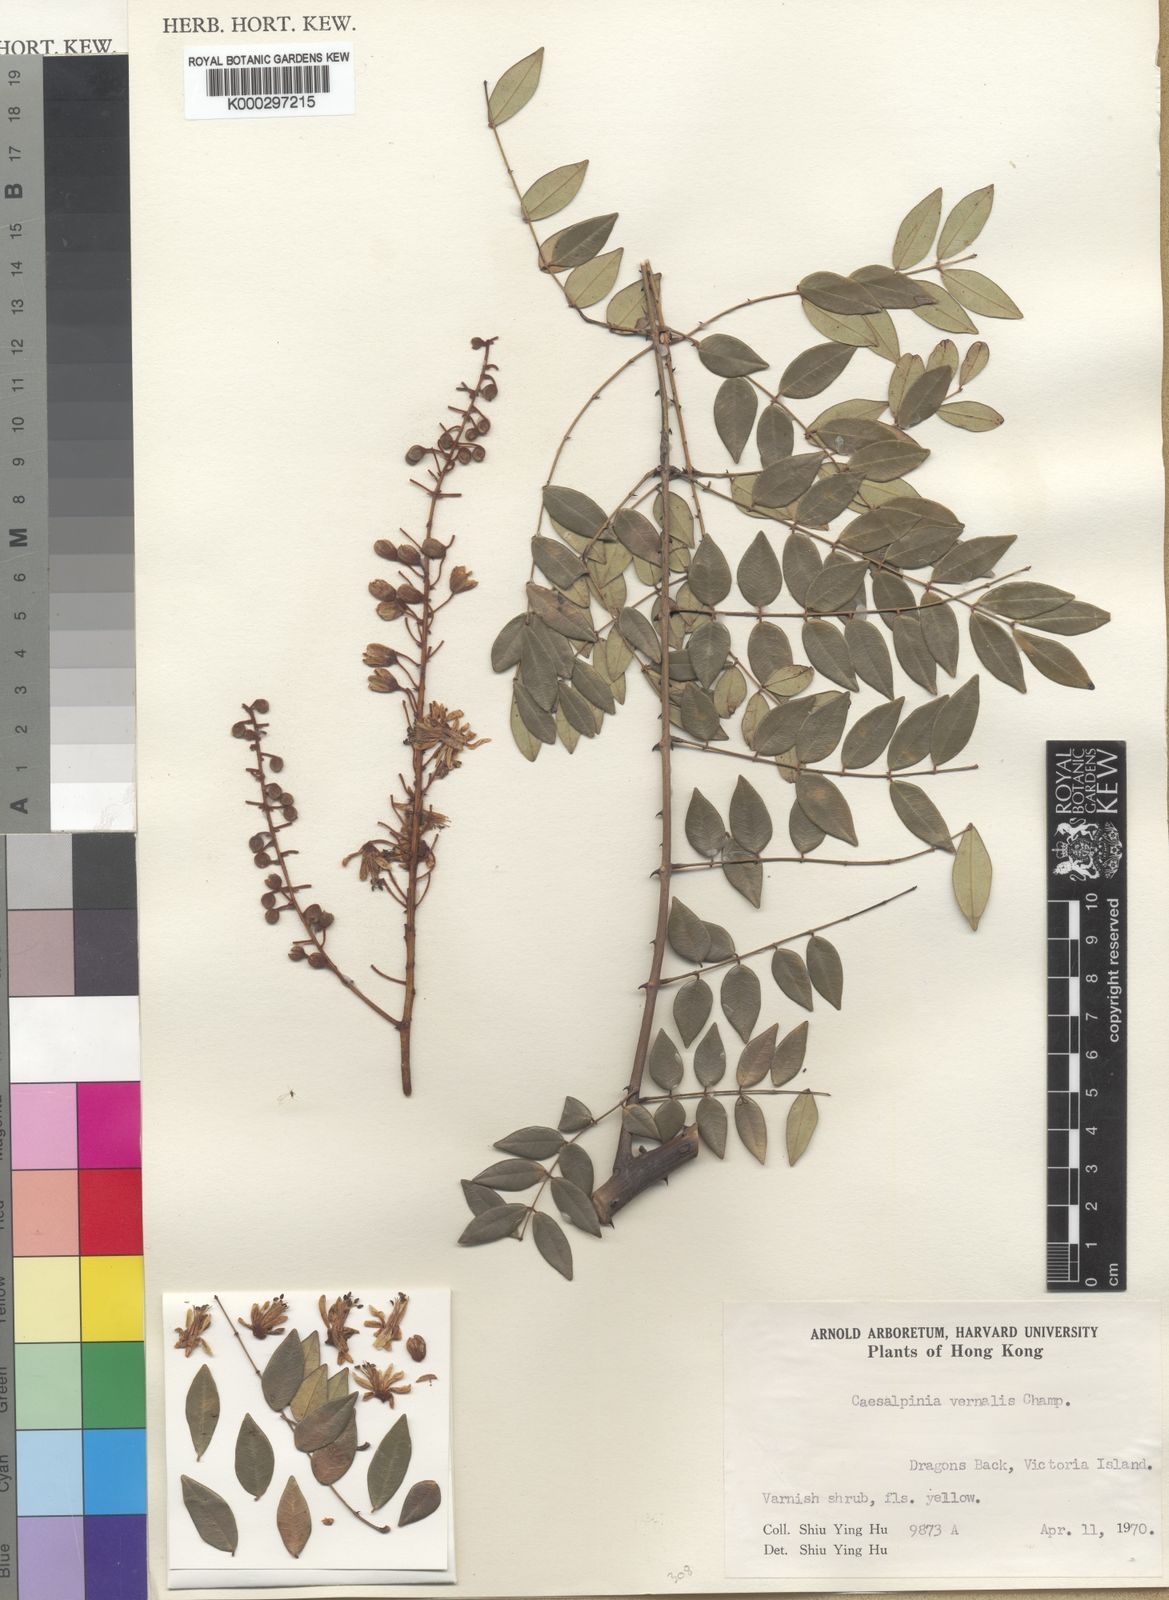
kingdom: Plantae
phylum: Tracheophyta
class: Magnoliopsida
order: Fabales
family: Fabaceae
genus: Caesalpinia
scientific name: Caesalpinia Ticanto vernalis
